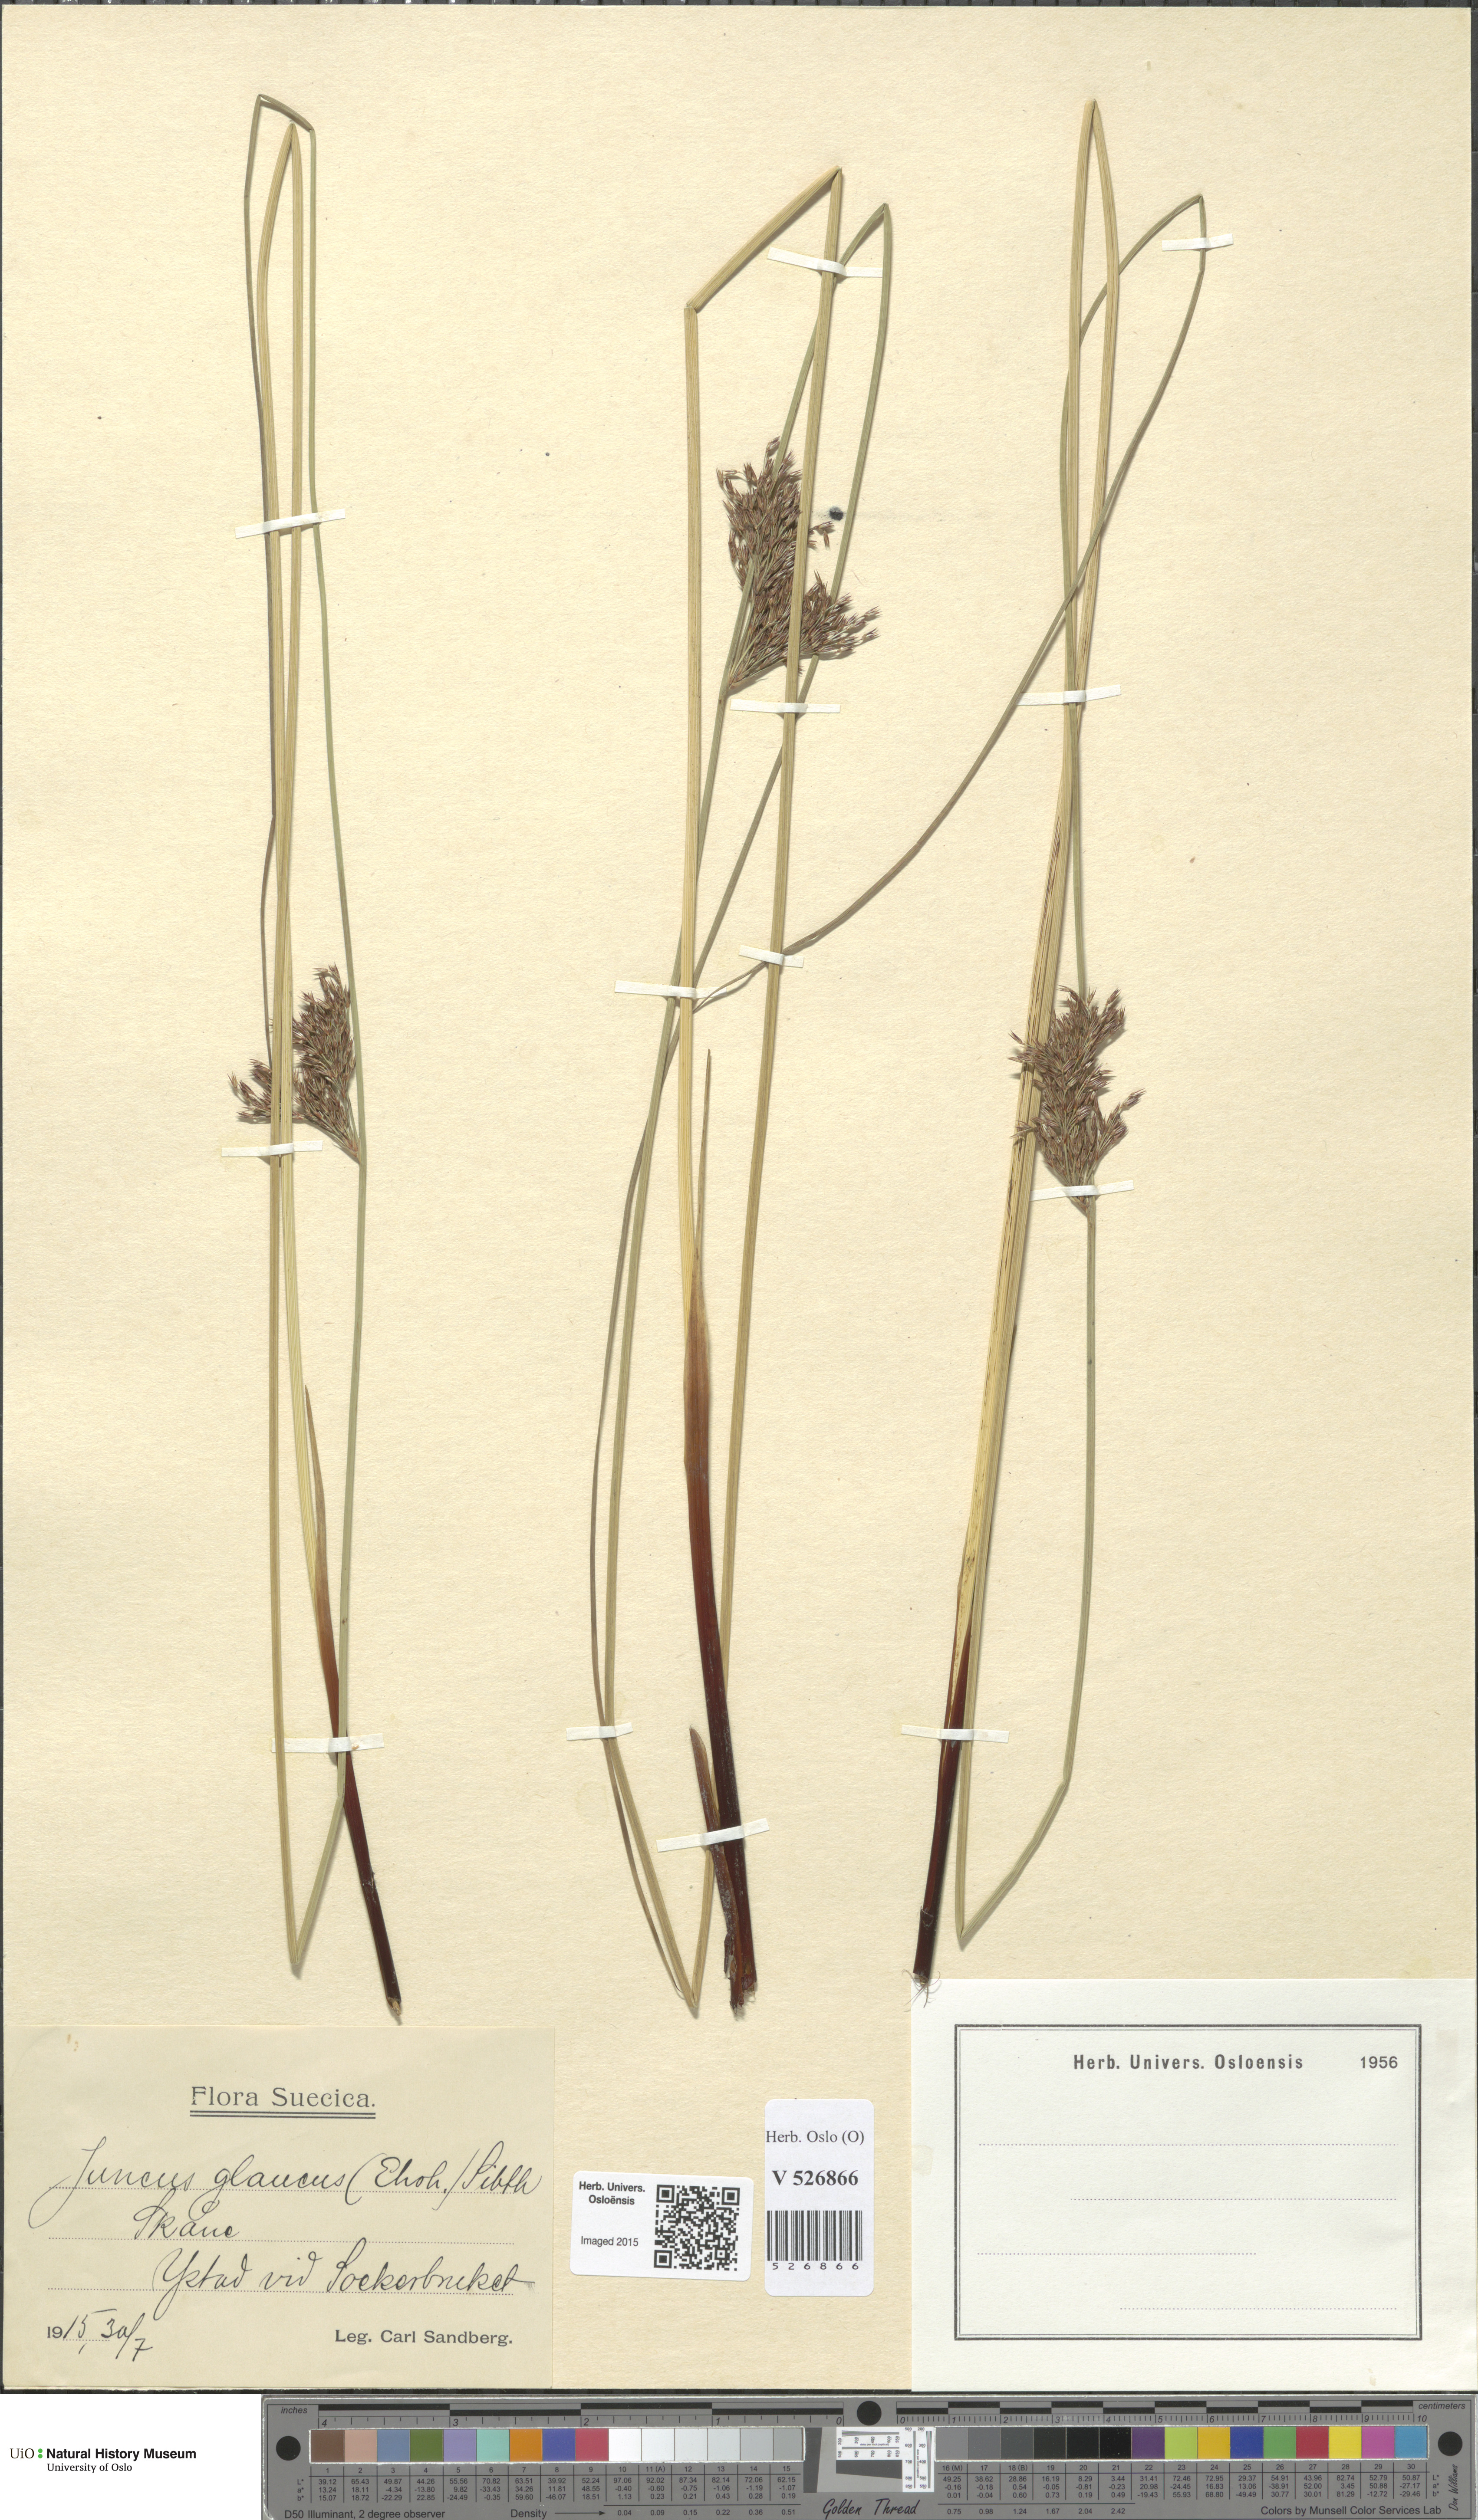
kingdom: Plantae
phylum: Tracheophyta
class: Liliopsida
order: Poales
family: Juncaceae
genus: Juncus
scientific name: Juncus inflexus
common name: Hard rush
